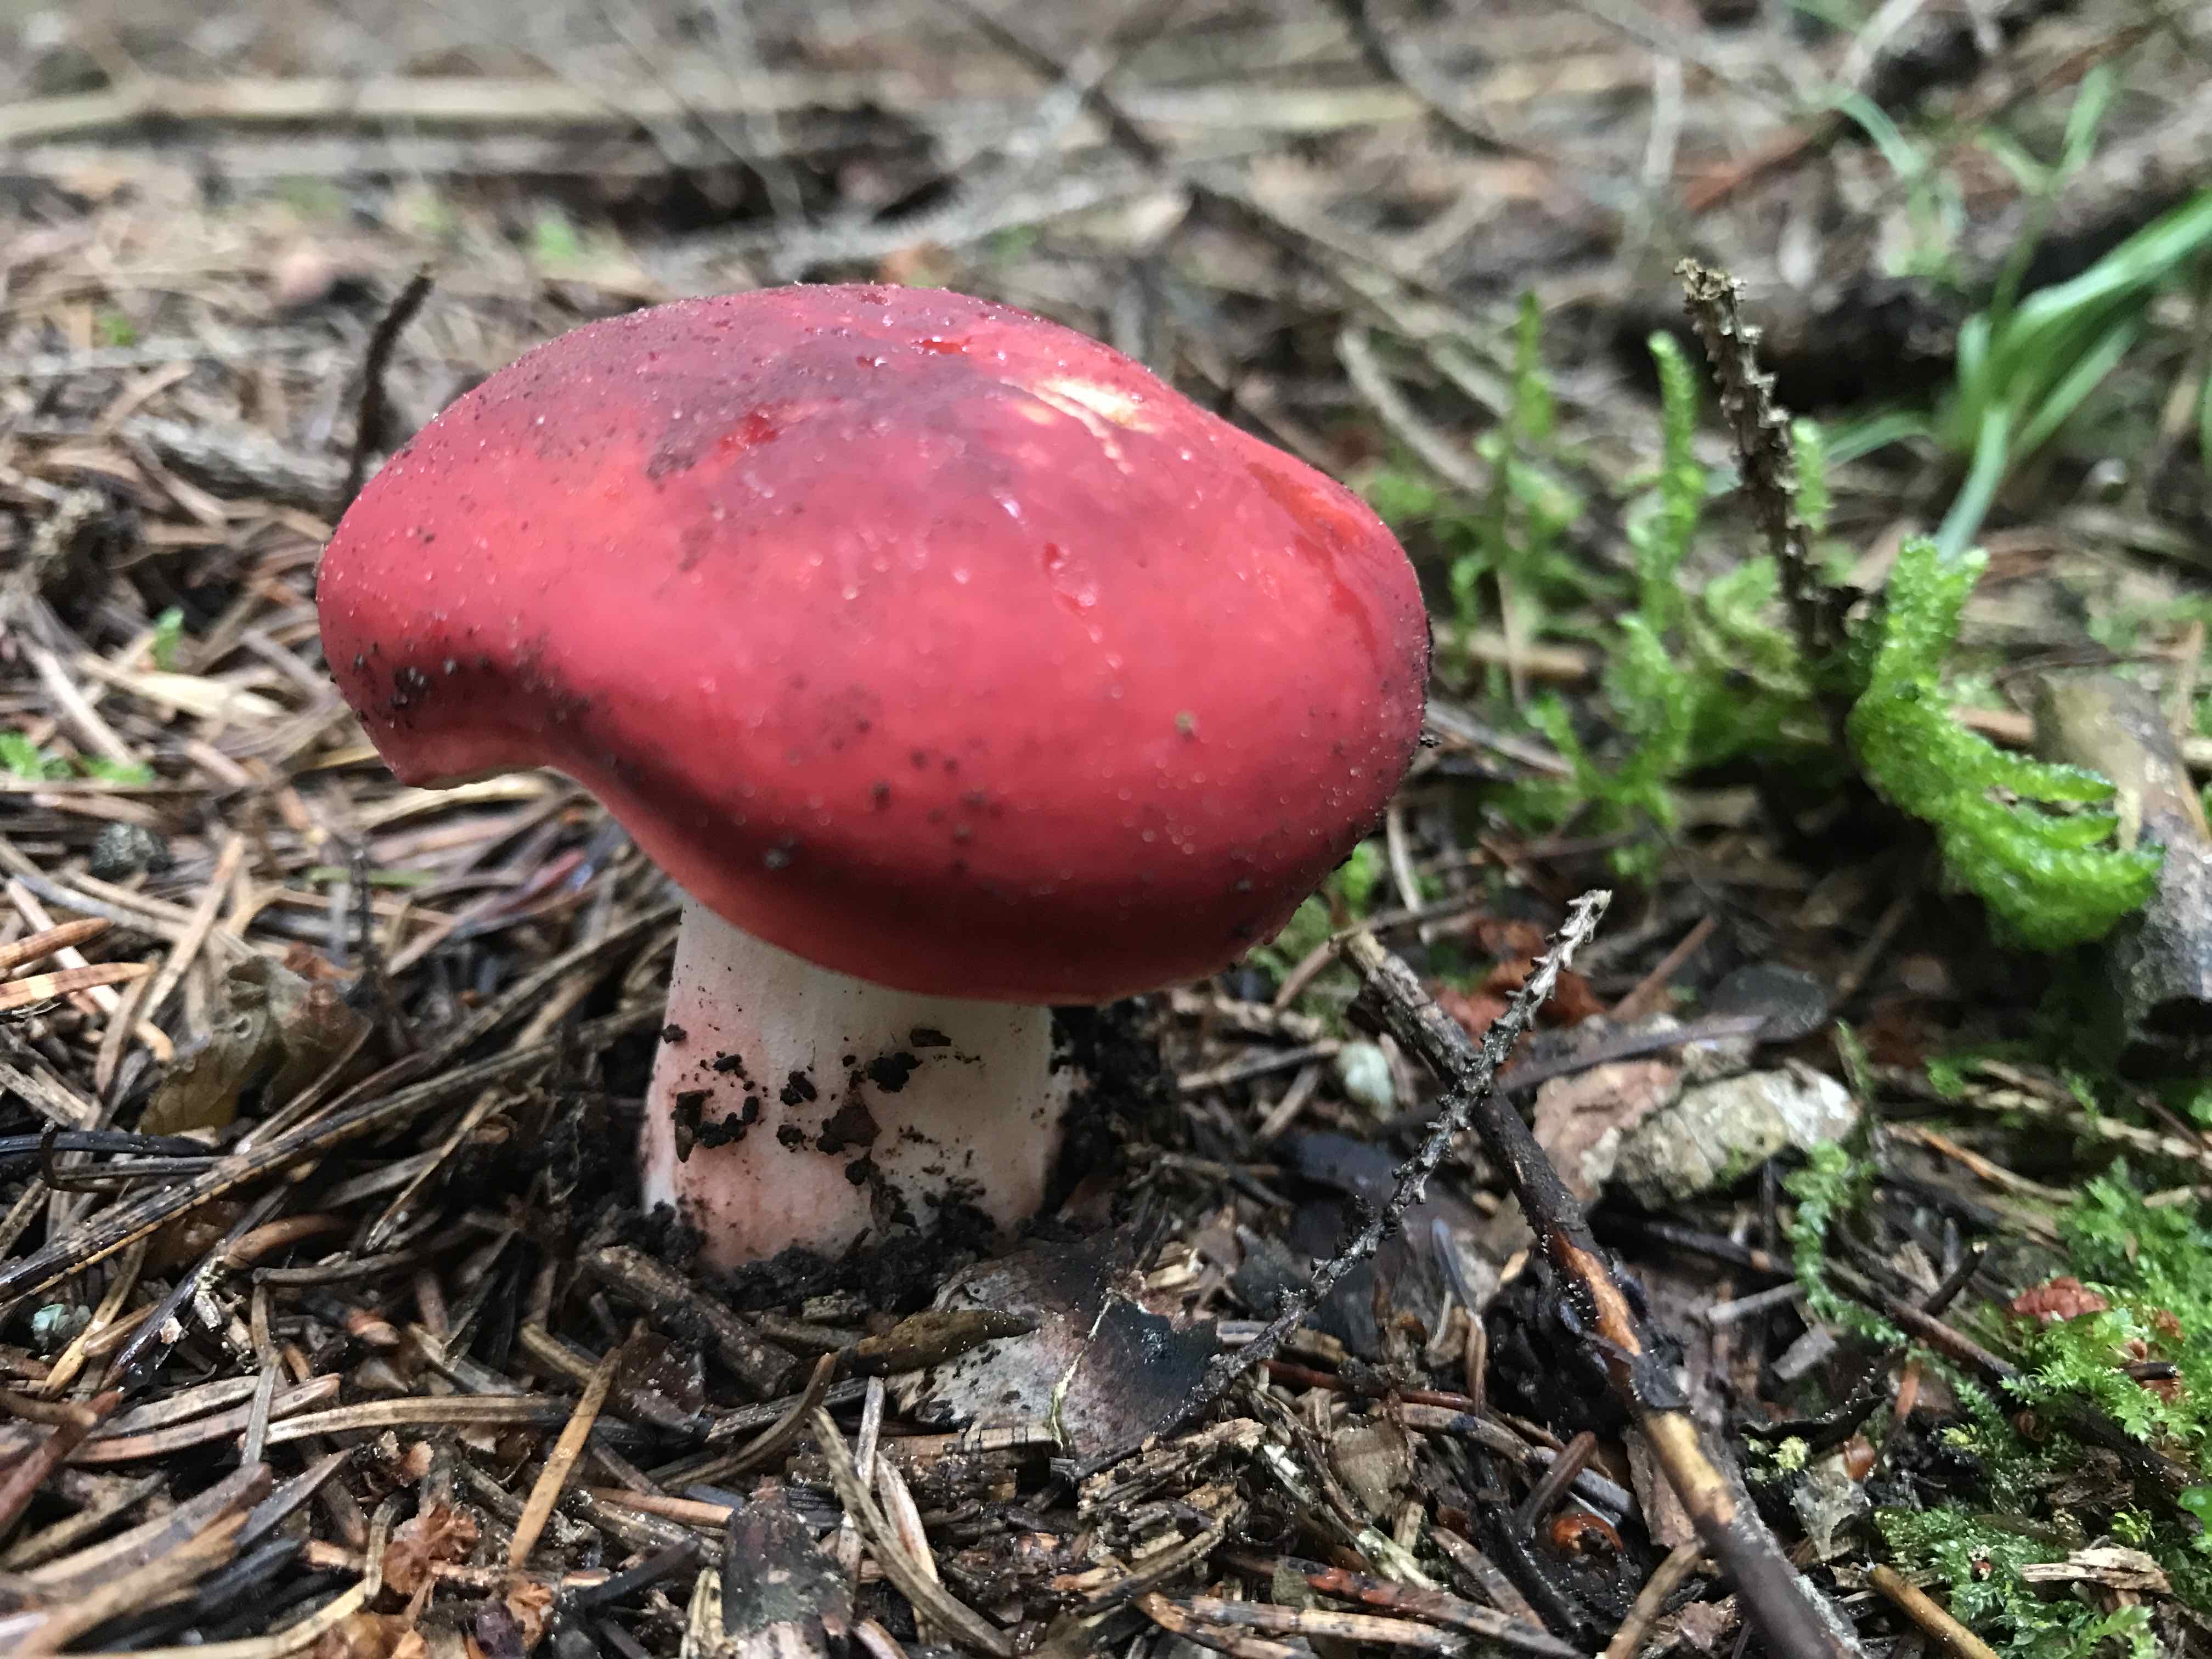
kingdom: Fungi
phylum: Basidiomycota
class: Agaricomycetes
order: Russulales
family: Russulaceae
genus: Russula
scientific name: Russula
